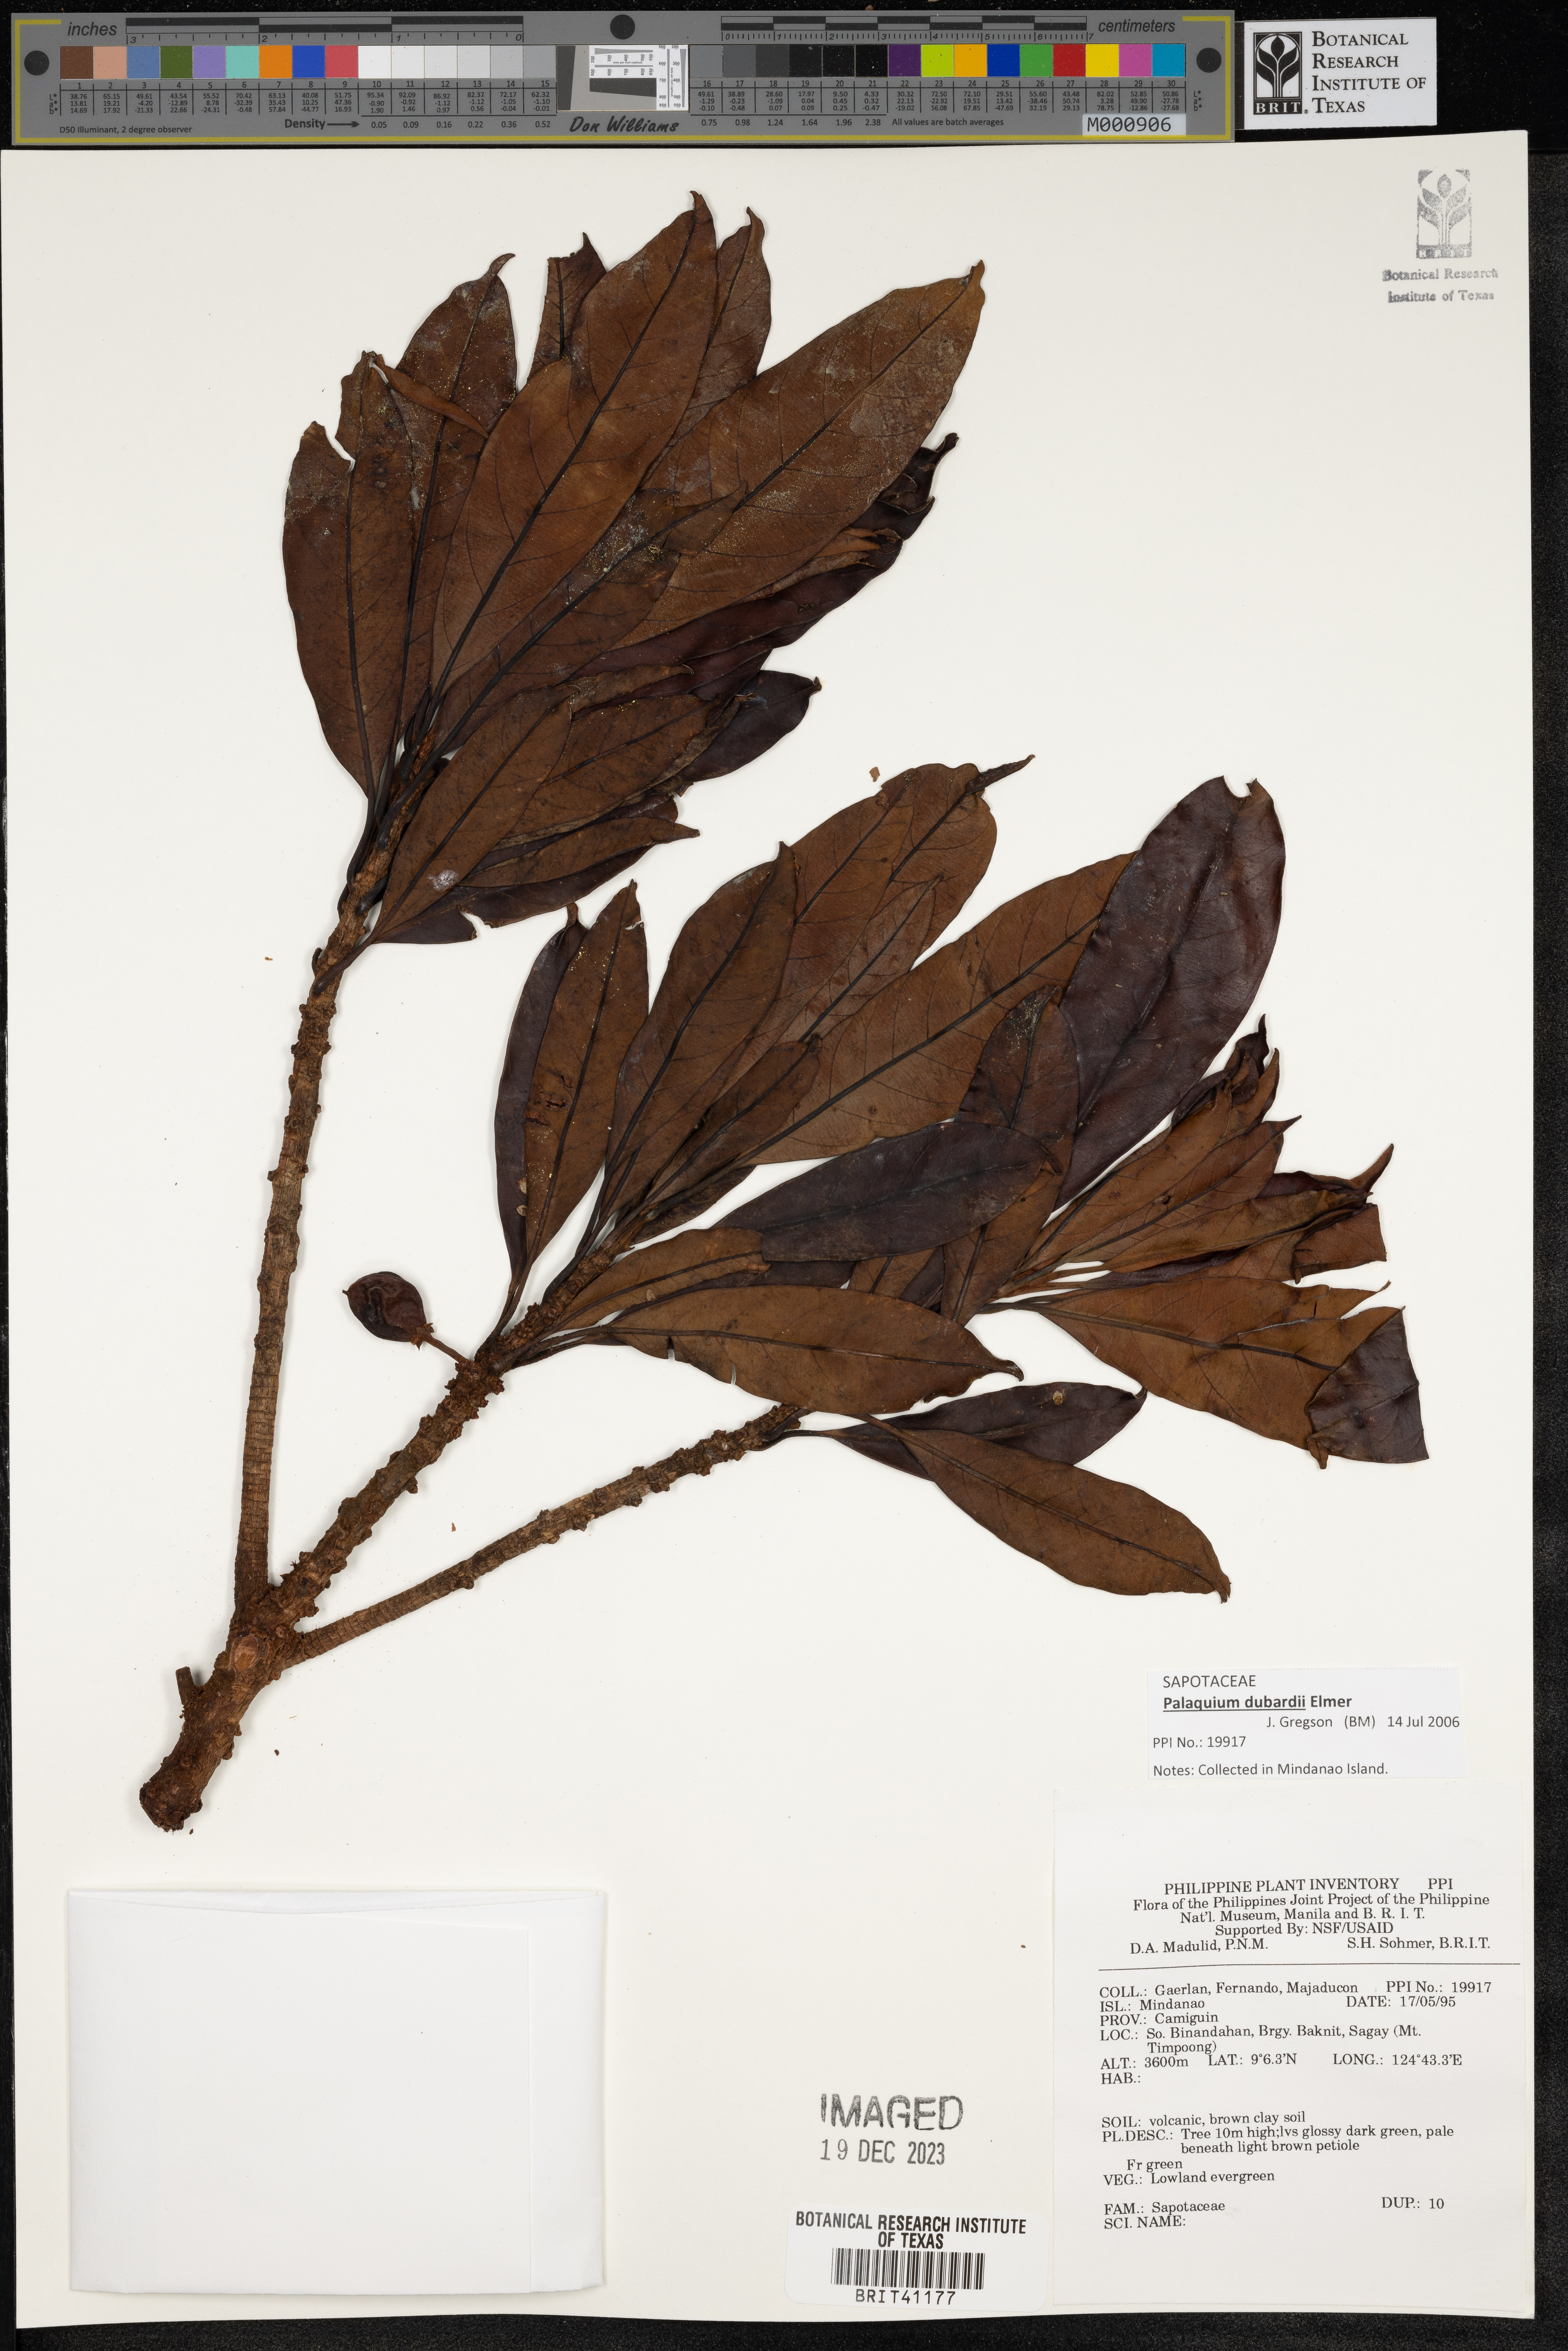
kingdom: Plantae
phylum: Tracheophyta
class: Magnoliopsida
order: Ericales
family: Sapotaceae
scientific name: Sapotaceae
